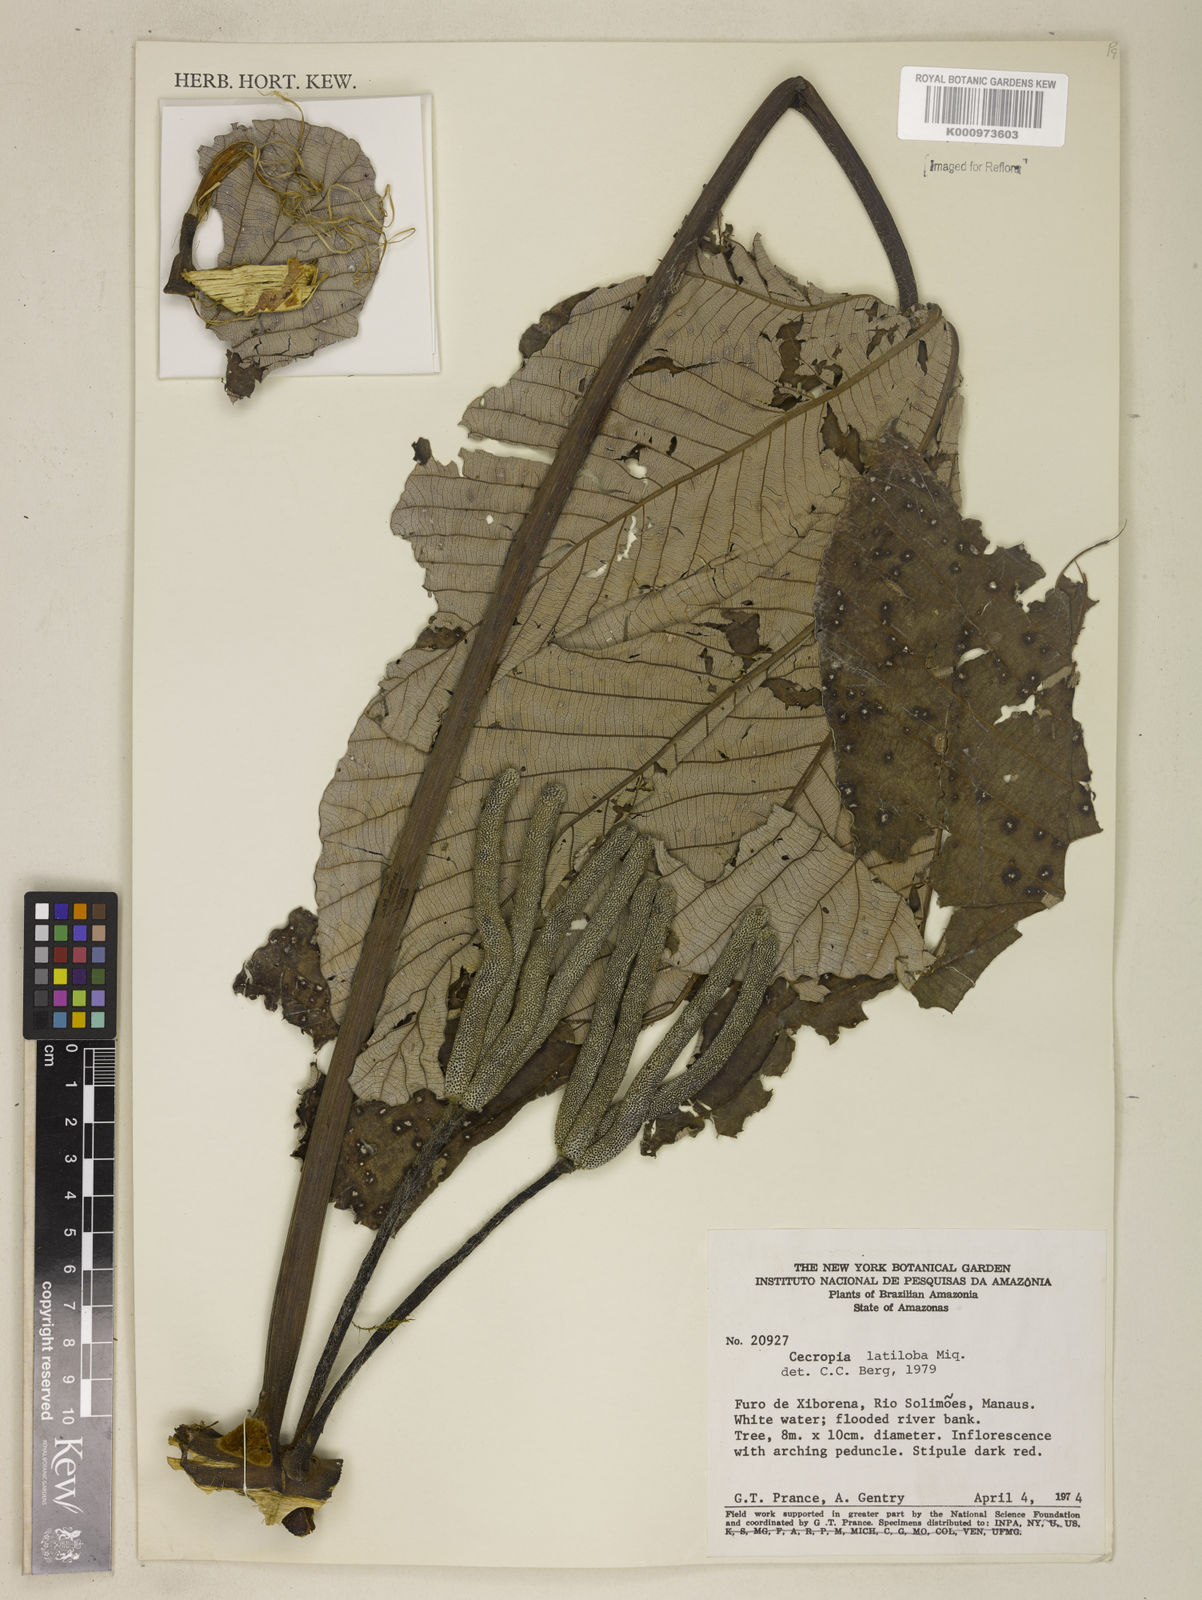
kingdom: Plantae
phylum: Tracheophyta
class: Magnoliopsida
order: Rosales
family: Urticaceae
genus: Cecropia
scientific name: Cecropia latiloba
